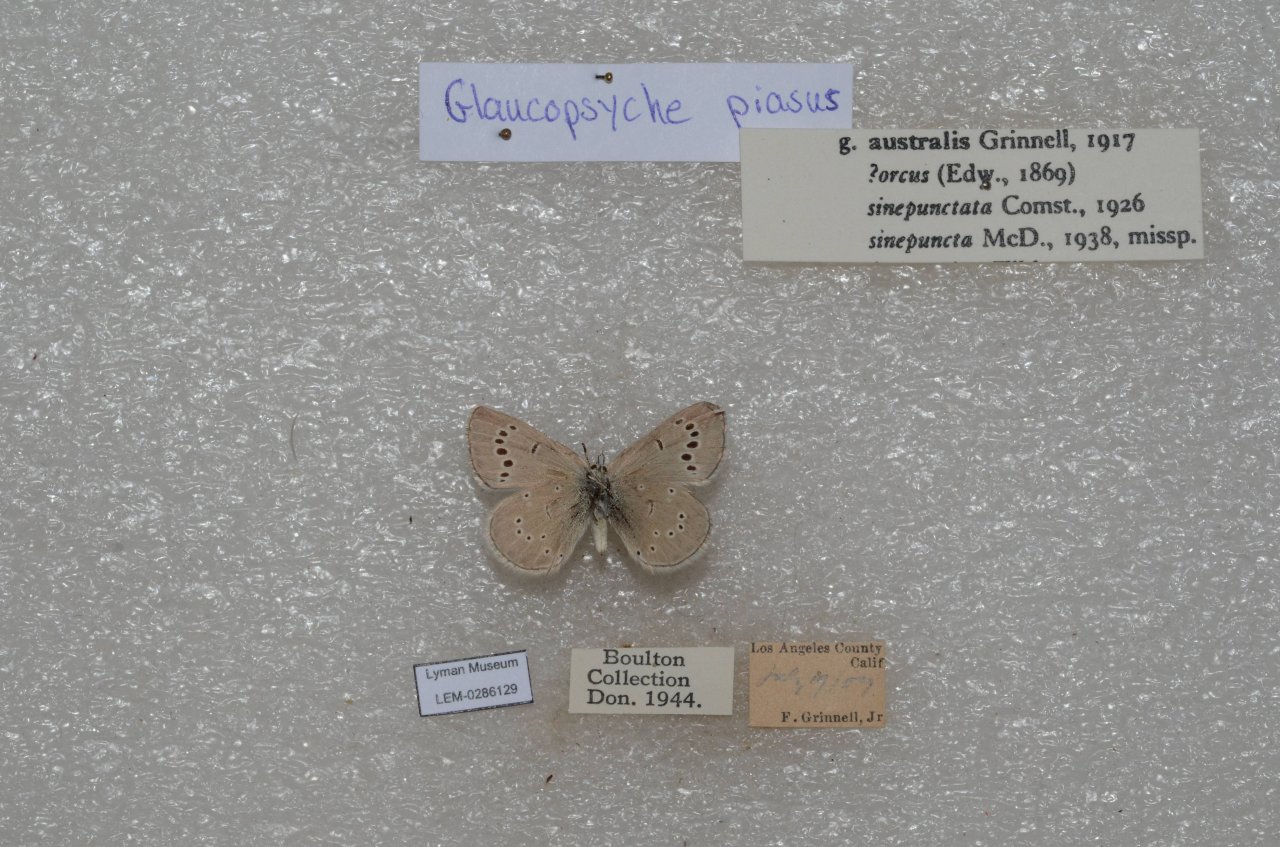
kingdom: Animalia
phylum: Arthropoda
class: Insecta
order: Lepidoptera
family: Lycaenidae
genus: Glaucopsyche
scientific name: Glaucopsyche lygdamus
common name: Silvery Blue
